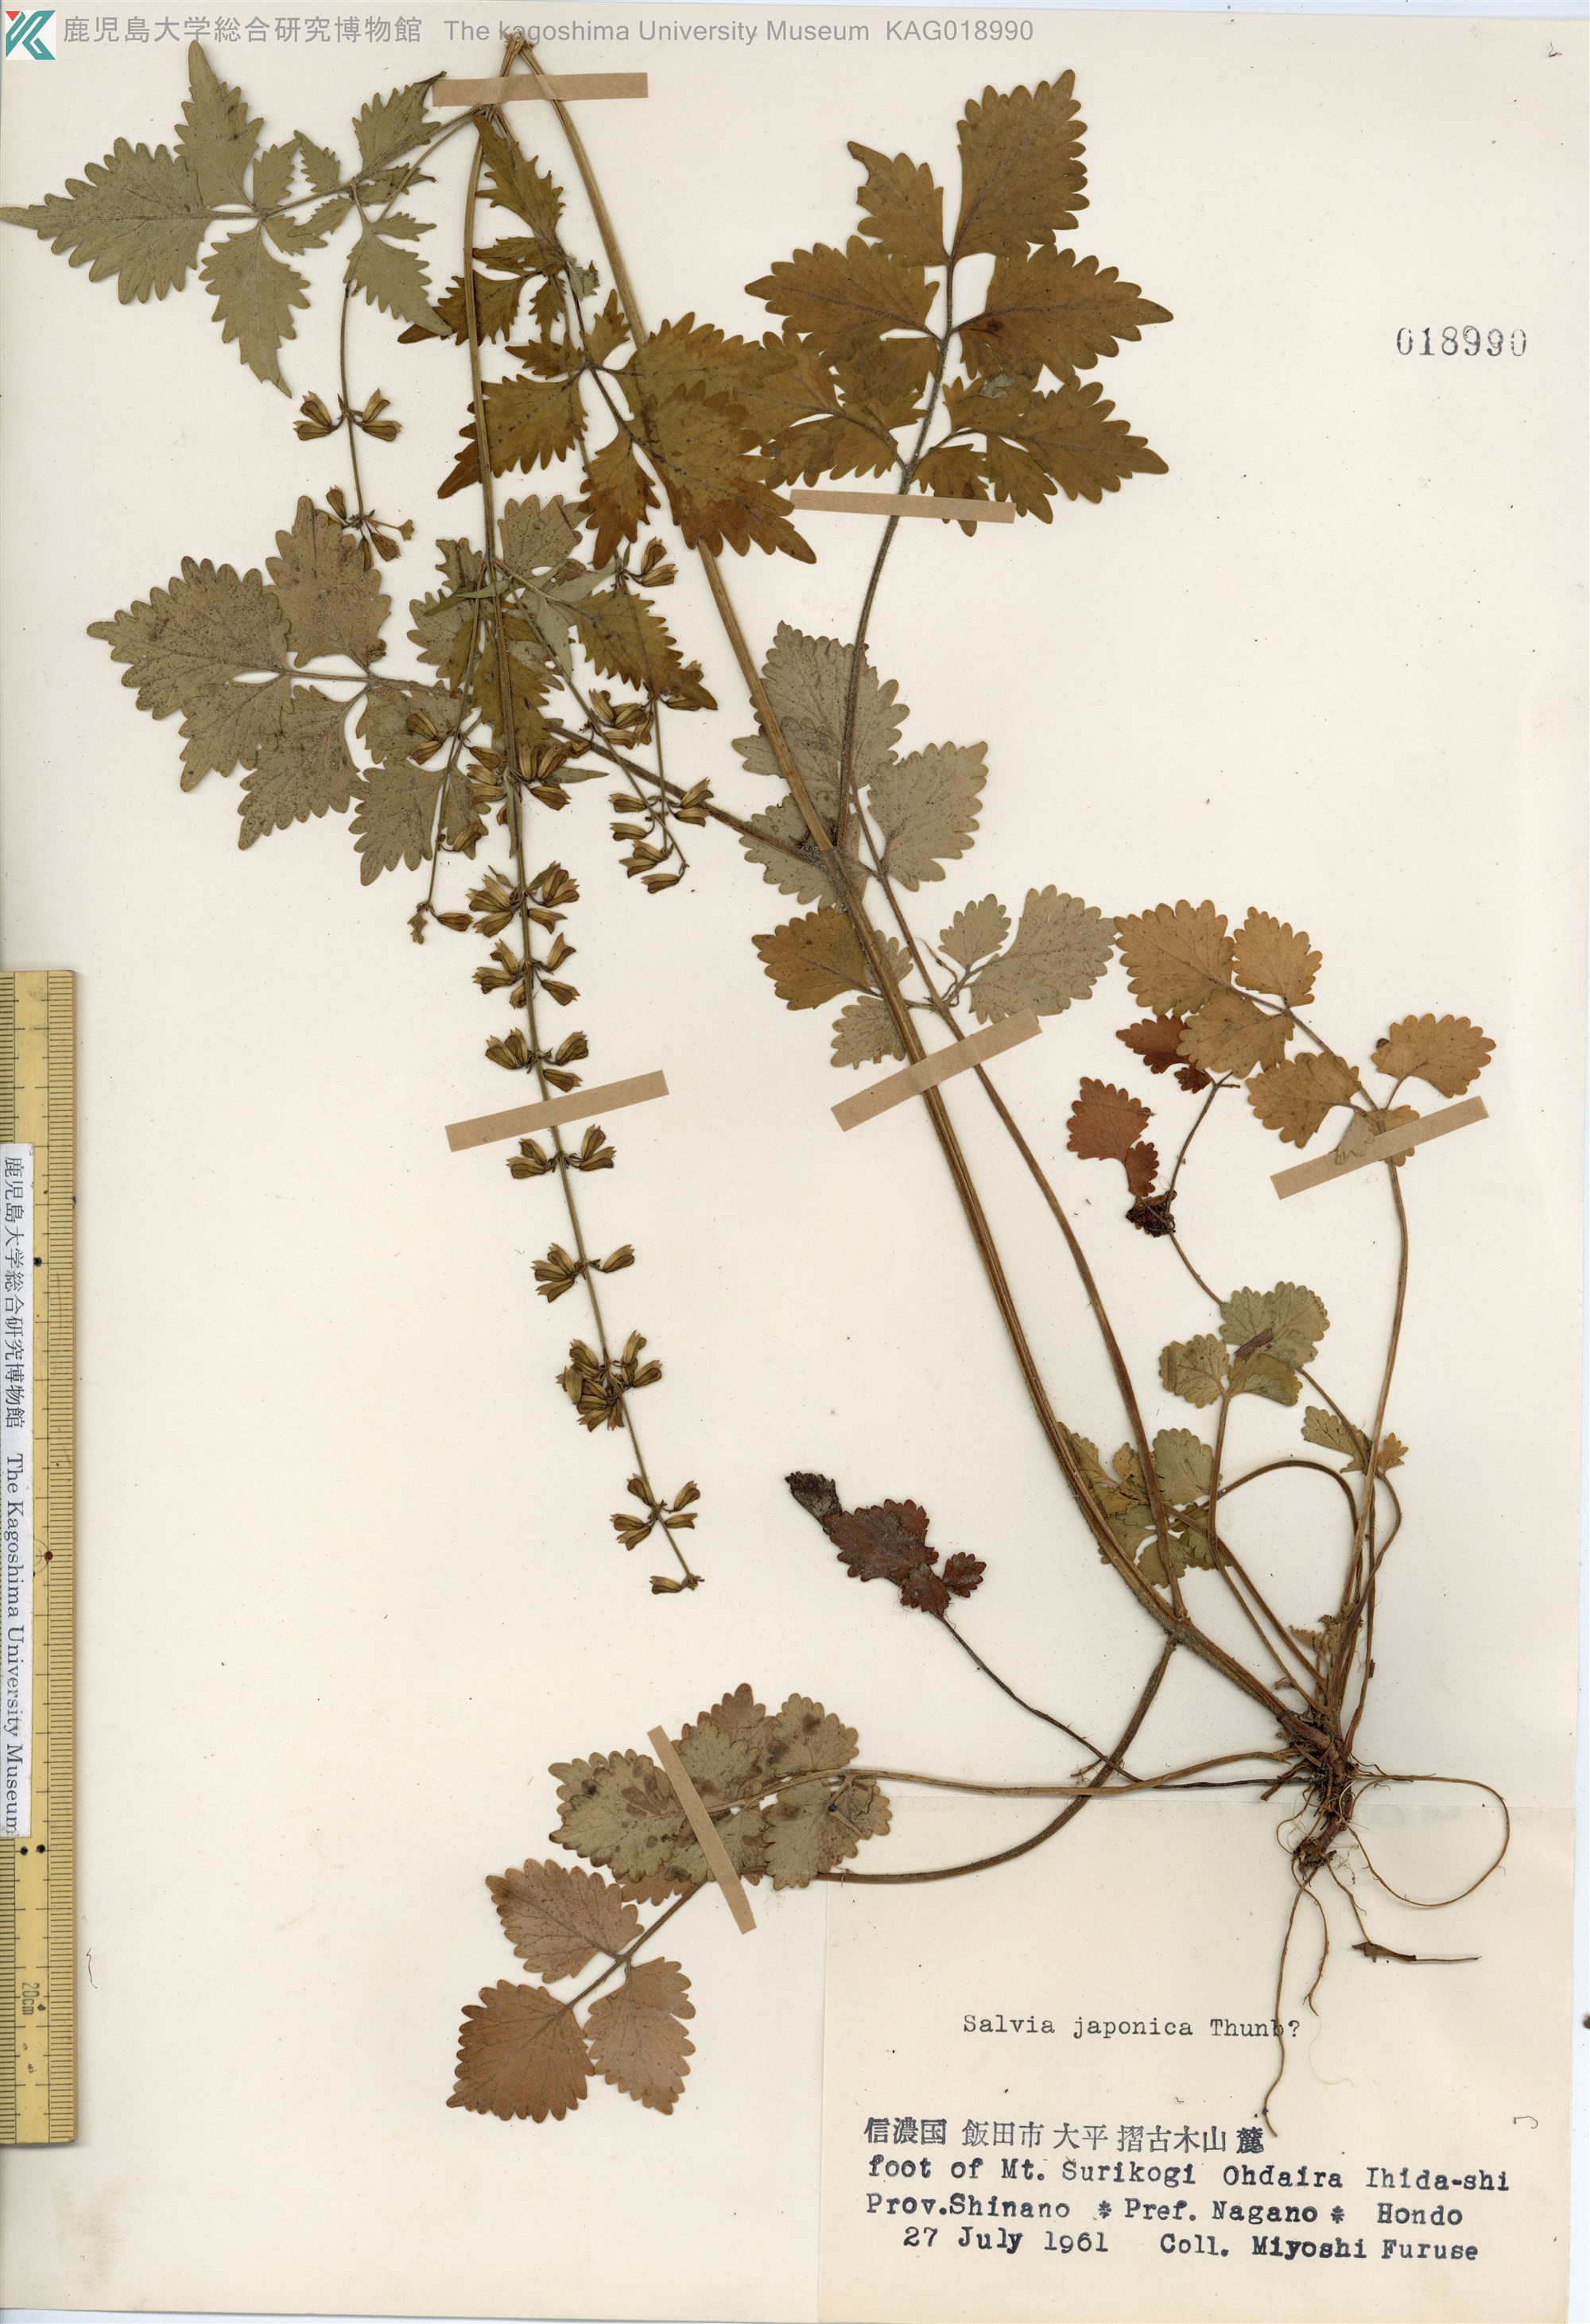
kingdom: Plantae
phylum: Tracheophyta
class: Magnoliopsida
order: Lamiales
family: Lamiaceae
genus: Salvia
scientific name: Salvia japonica
